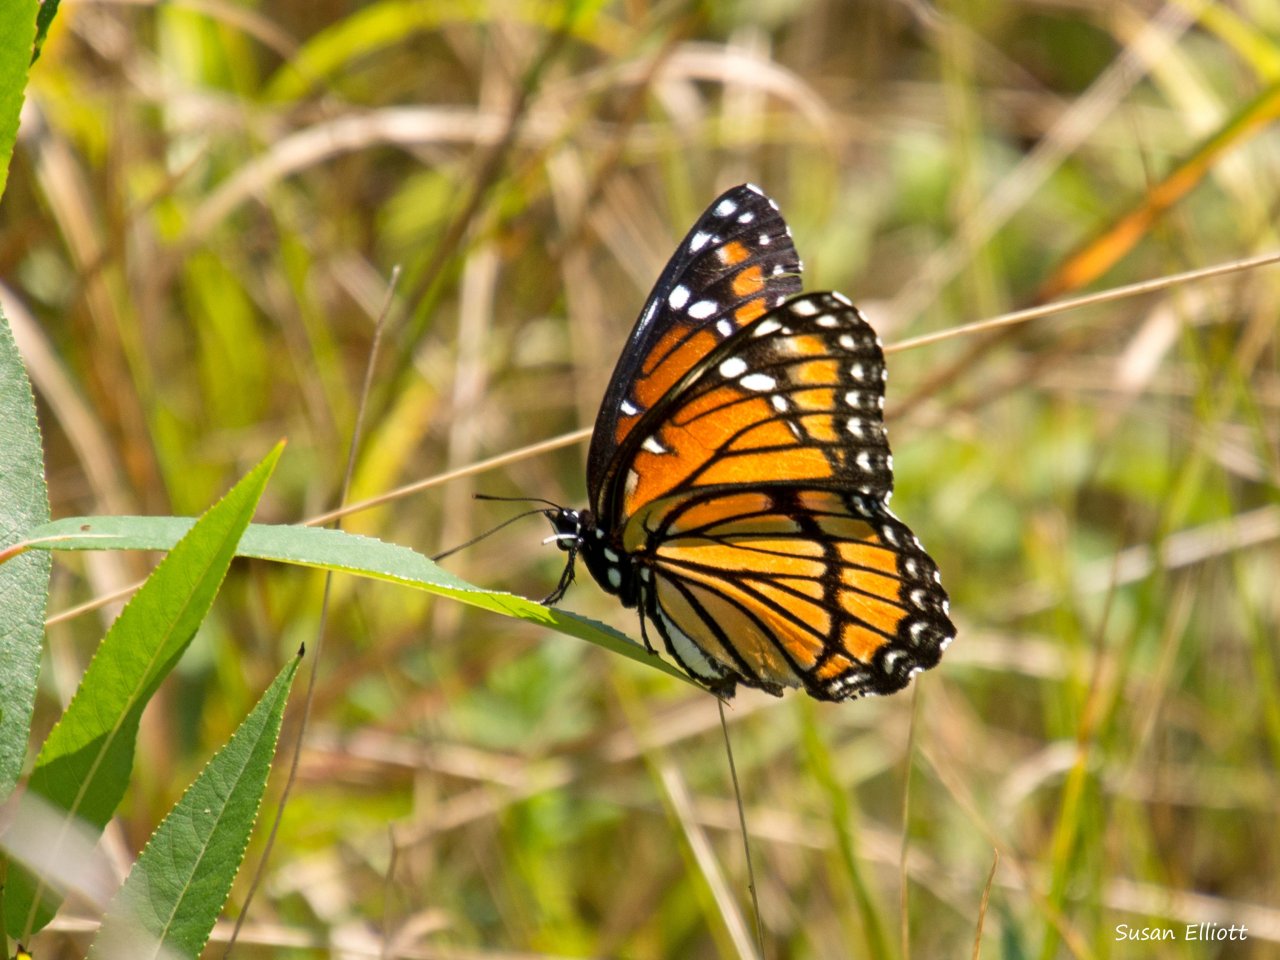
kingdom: Animalia
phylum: Arthropoda
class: Insecta
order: Lepidoptera
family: Nymphalidae
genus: Limenitis
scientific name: Limenitis archippus
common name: Viceroy
